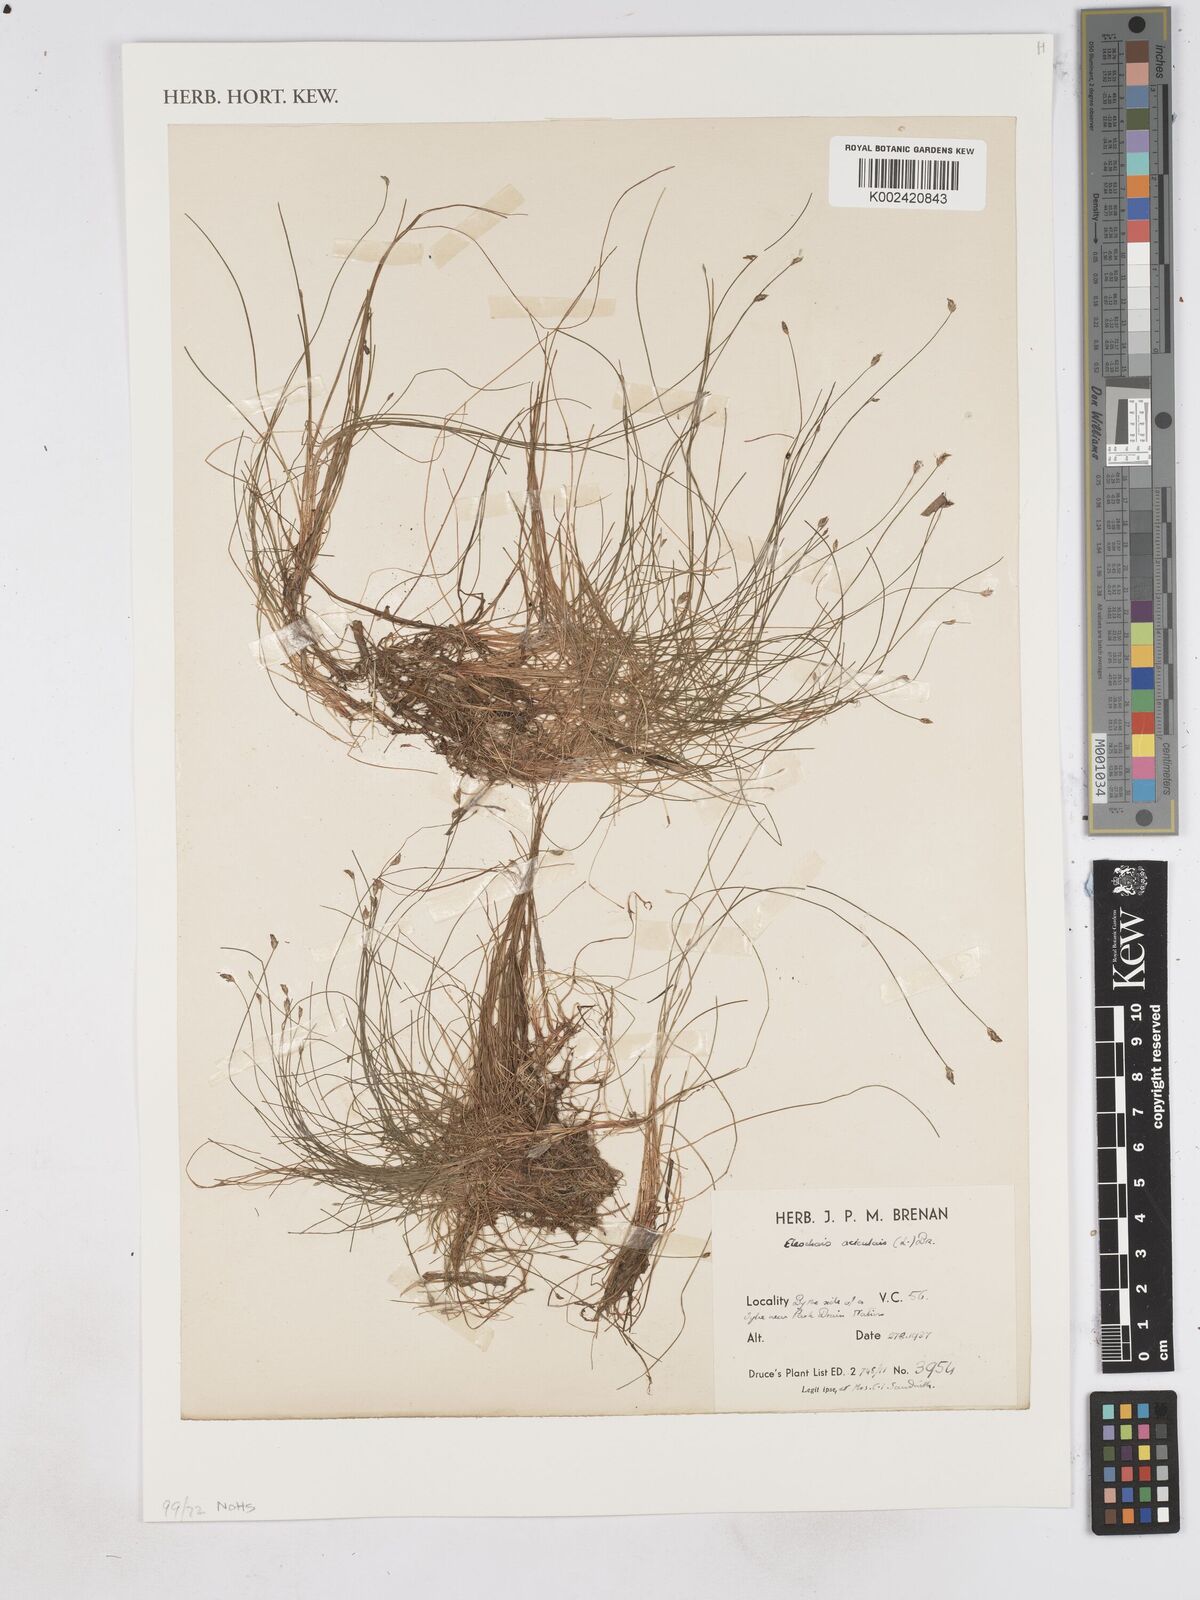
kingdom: Plantae
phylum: Tracheophyta
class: Liliopsida
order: Poales
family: Cyperaceae
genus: Eleocharis
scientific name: Eleocharis acicularis
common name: Needle spike-rush
